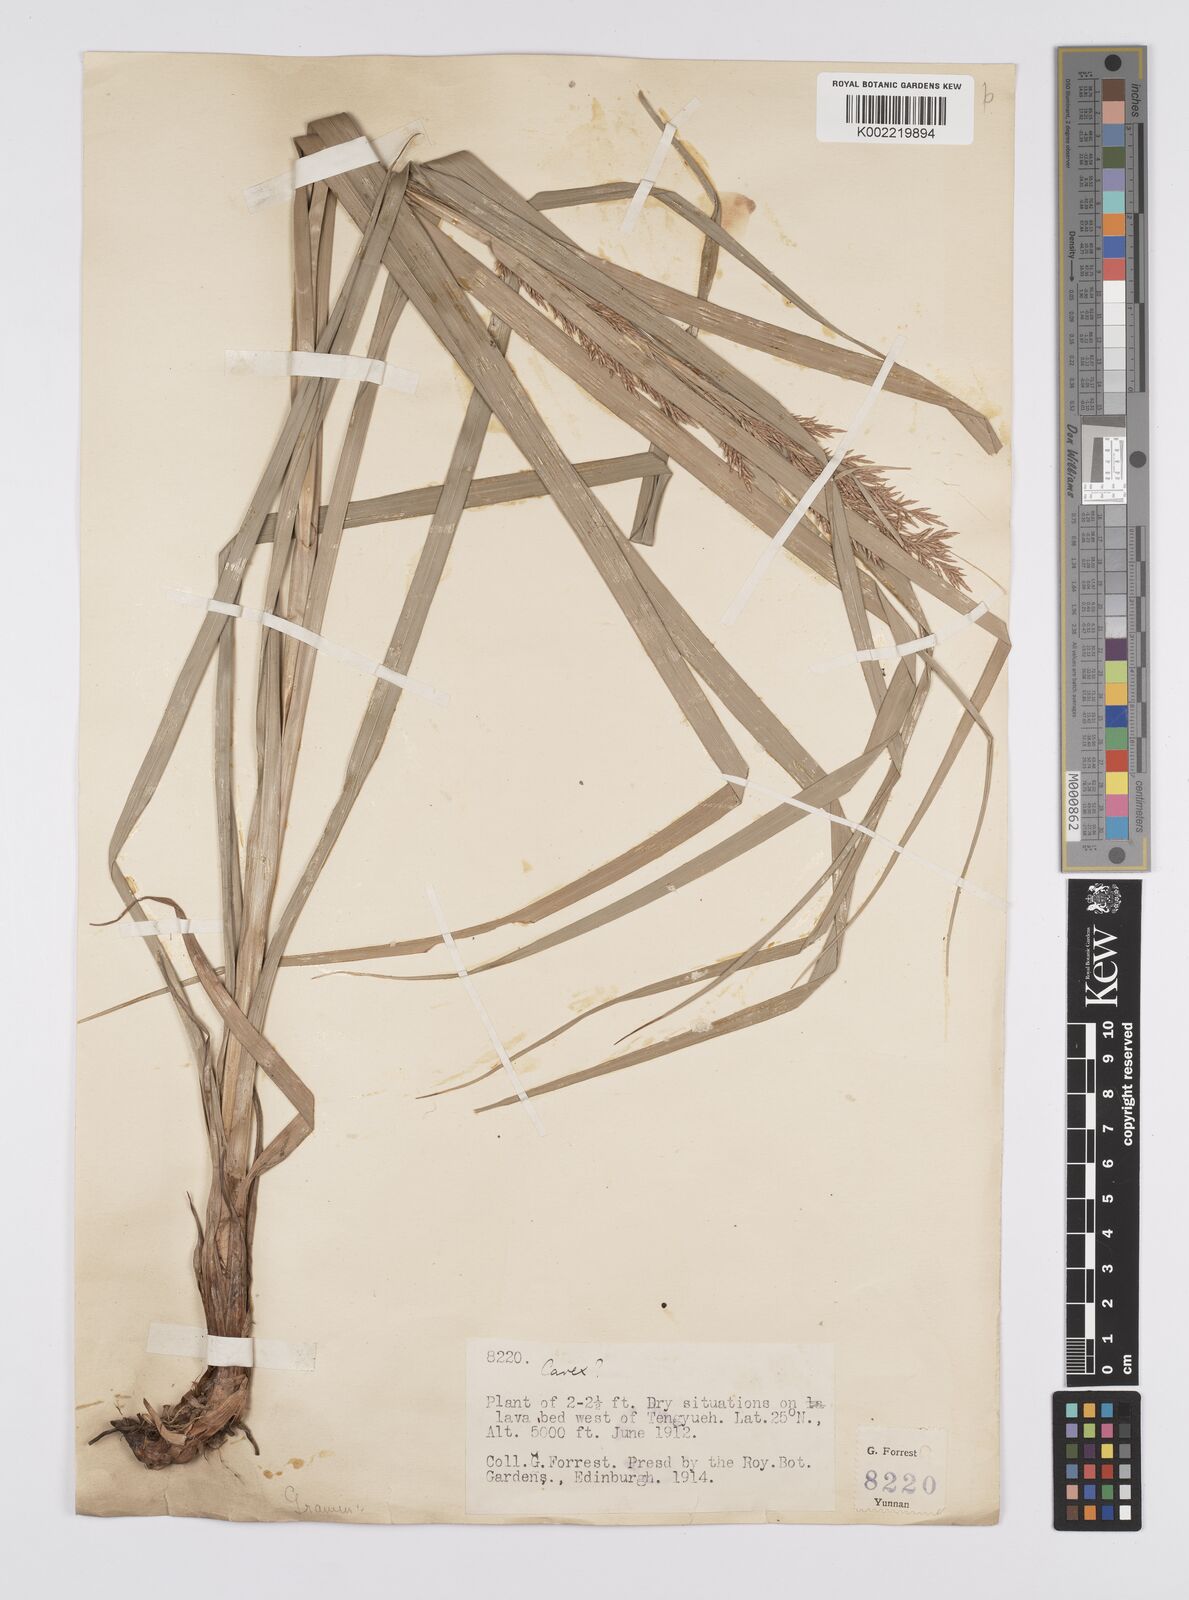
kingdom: Plantae
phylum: Tracheophyta
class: Liliopsida
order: Poales
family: Cyperaceae
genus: Carex
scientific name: Carex cruciata
